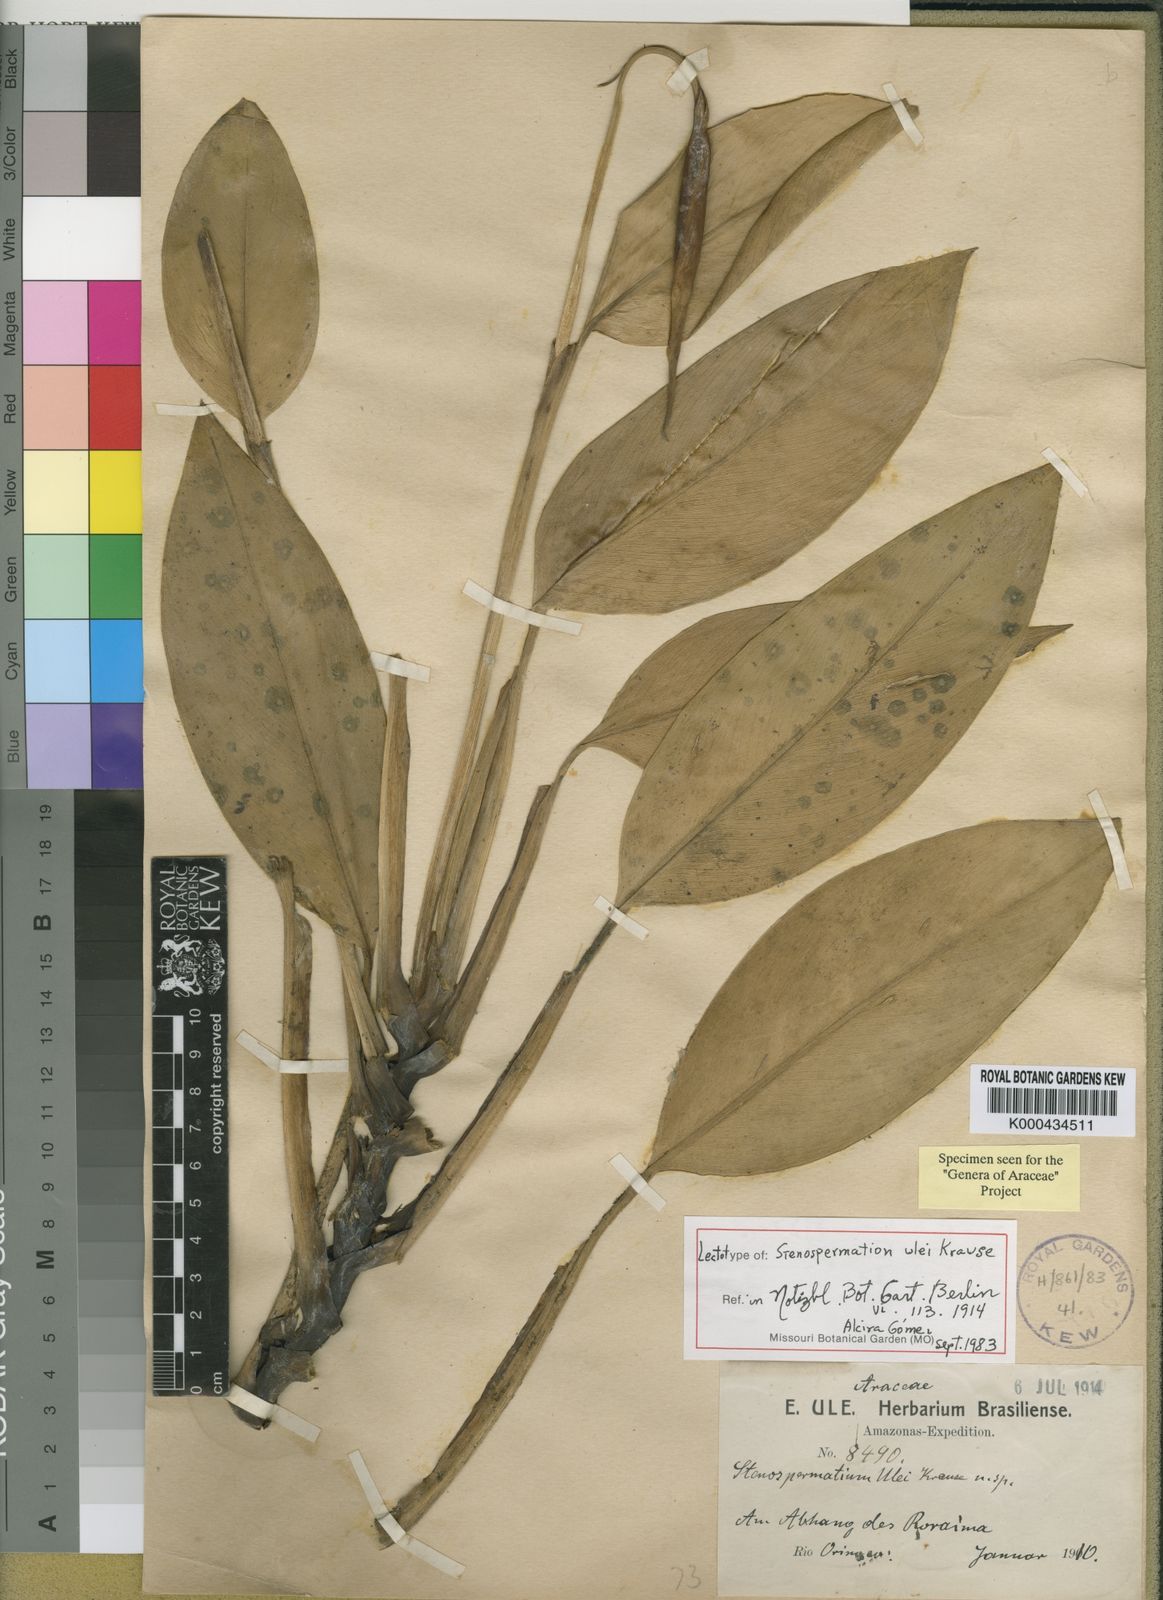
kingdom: Plantae
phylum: Tracheophyta
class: Liliopsida
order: Alismatales
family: Araceae
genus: Stenospermation
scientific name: Stenospermation ulei
